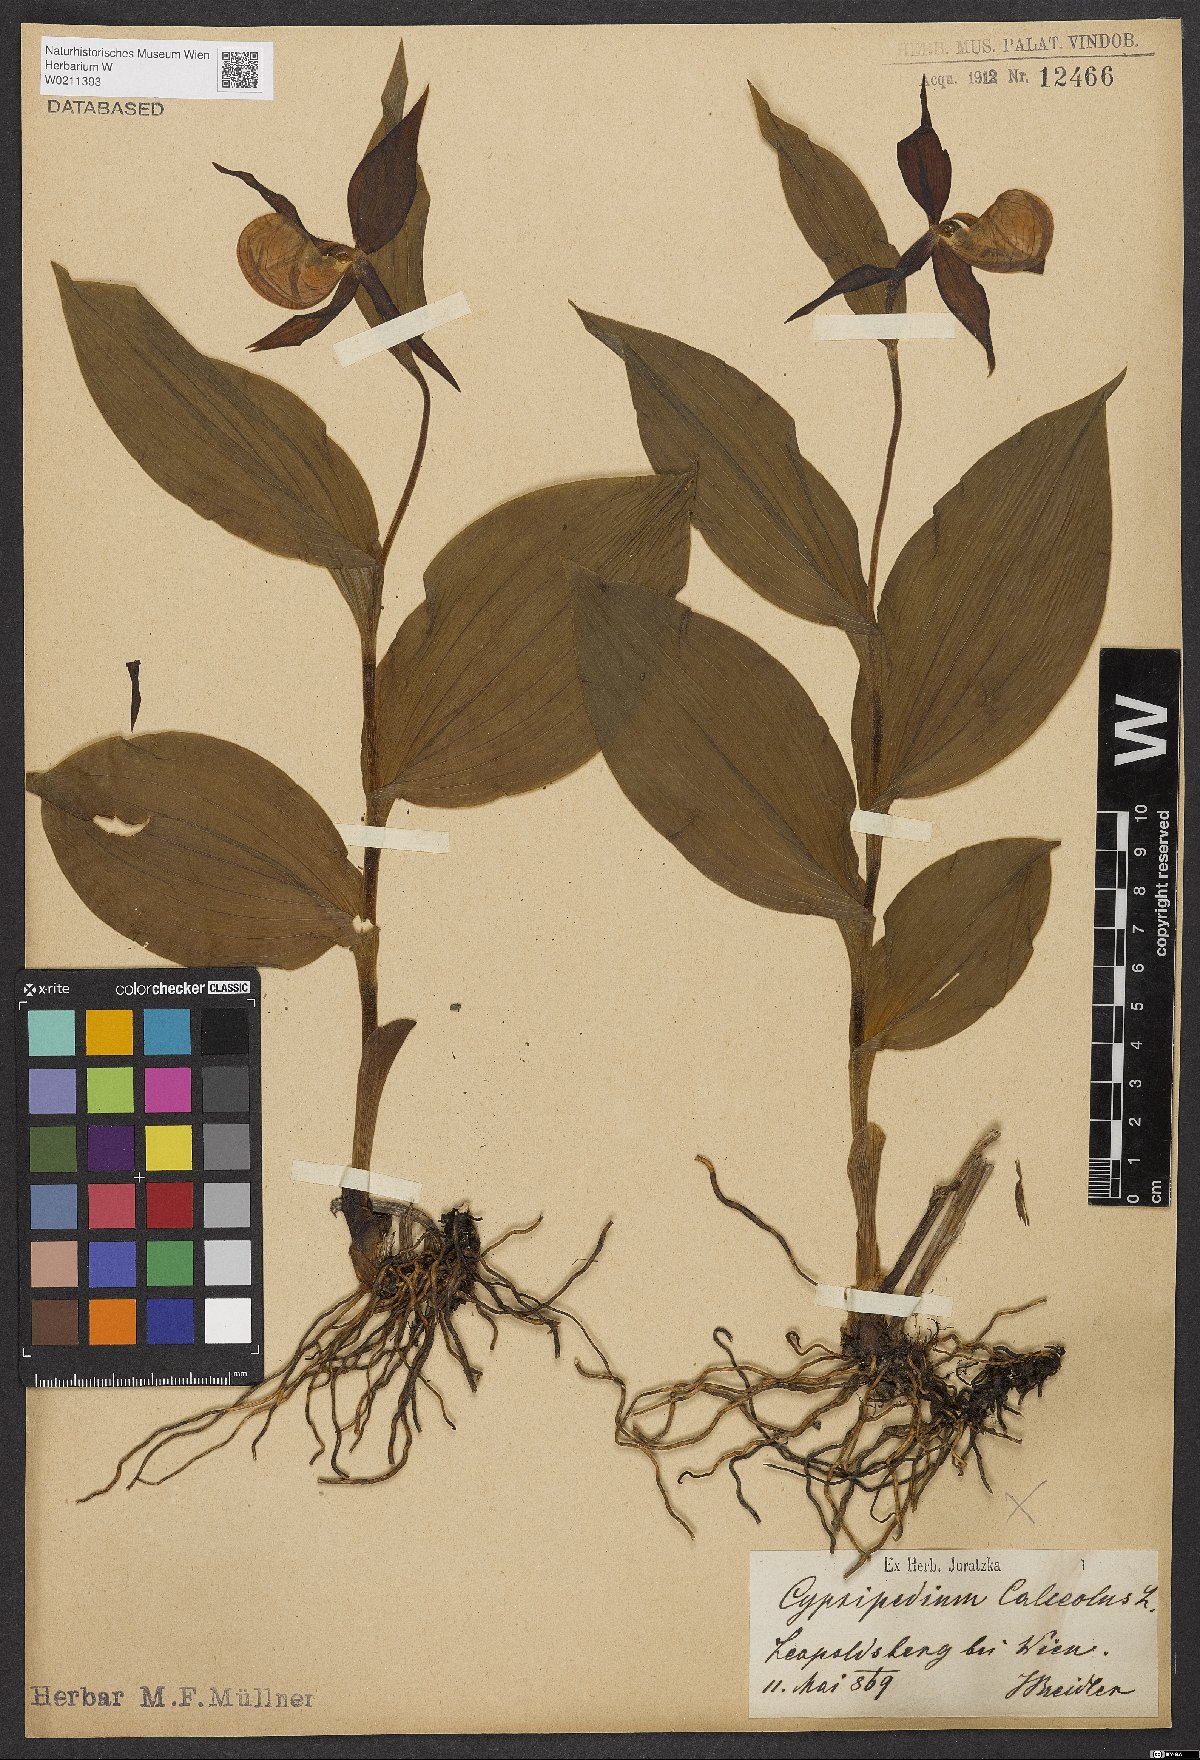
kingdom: Plantae
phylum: Tracheophyta
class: Liliopsida
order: Asparagales
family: Orchidaceae
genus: Cypripedium
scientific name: Cypripedium calceolus
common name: Lady's-slipper
